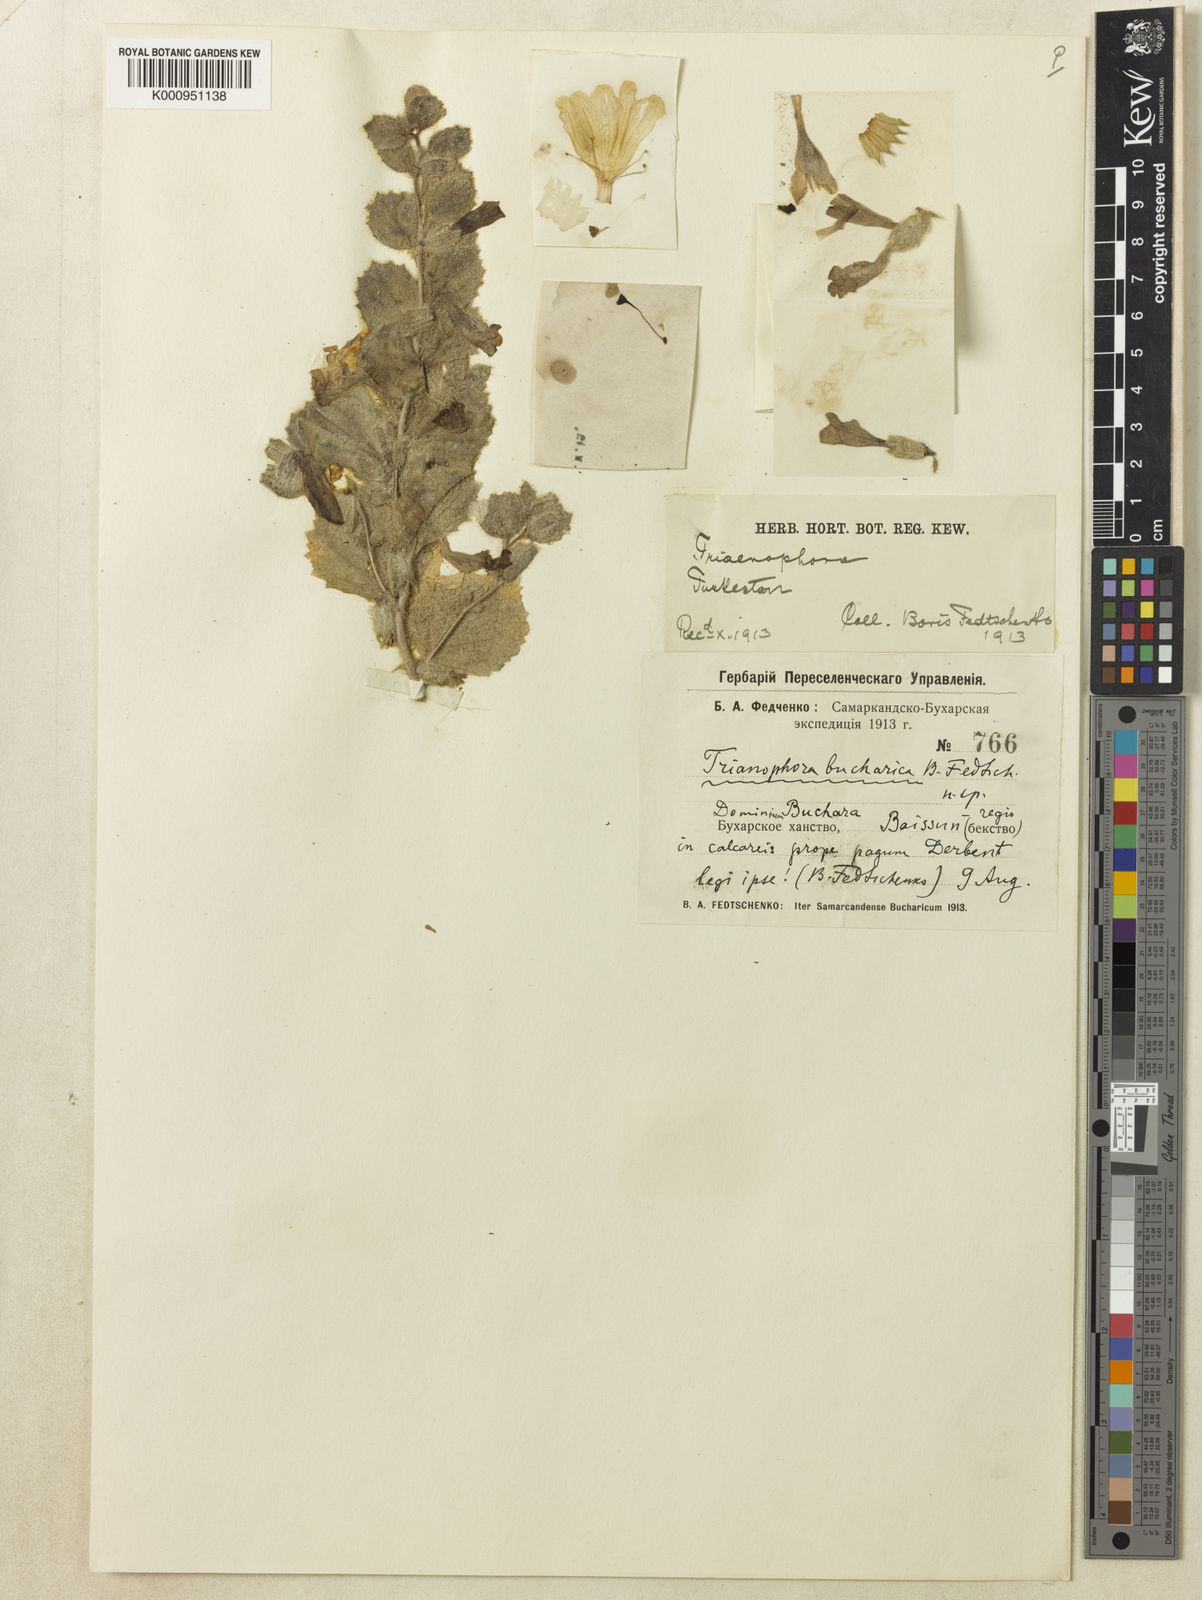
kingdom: Plantae
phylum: Tracheophyta
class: Magnoliopsida
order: Lamiales
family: Rehmanniaceae
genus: Triaenophora
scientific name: Triaenophora
